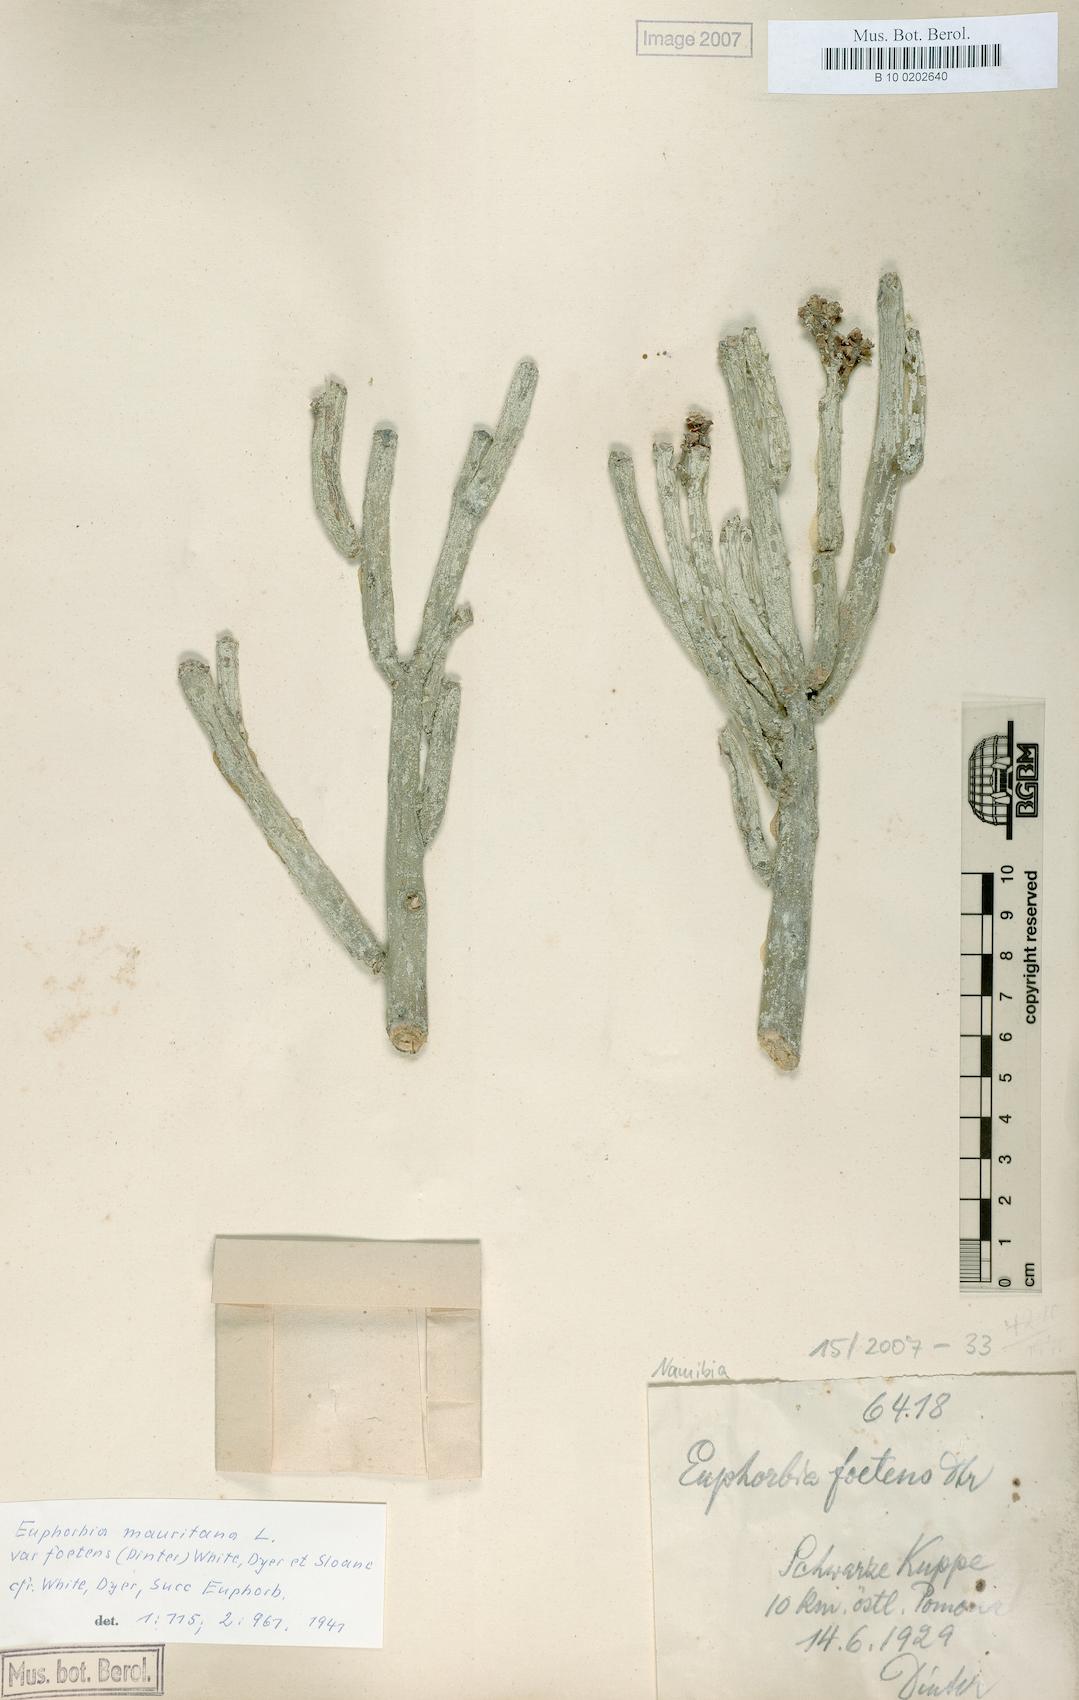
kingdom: Plantae
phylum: Tracheophyta
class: Magnoliopsida
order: Malpighiales
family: Euphorbiaceae
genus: Euphorbia
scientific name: Euphorbia mauritanica
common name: Jackal's-food
